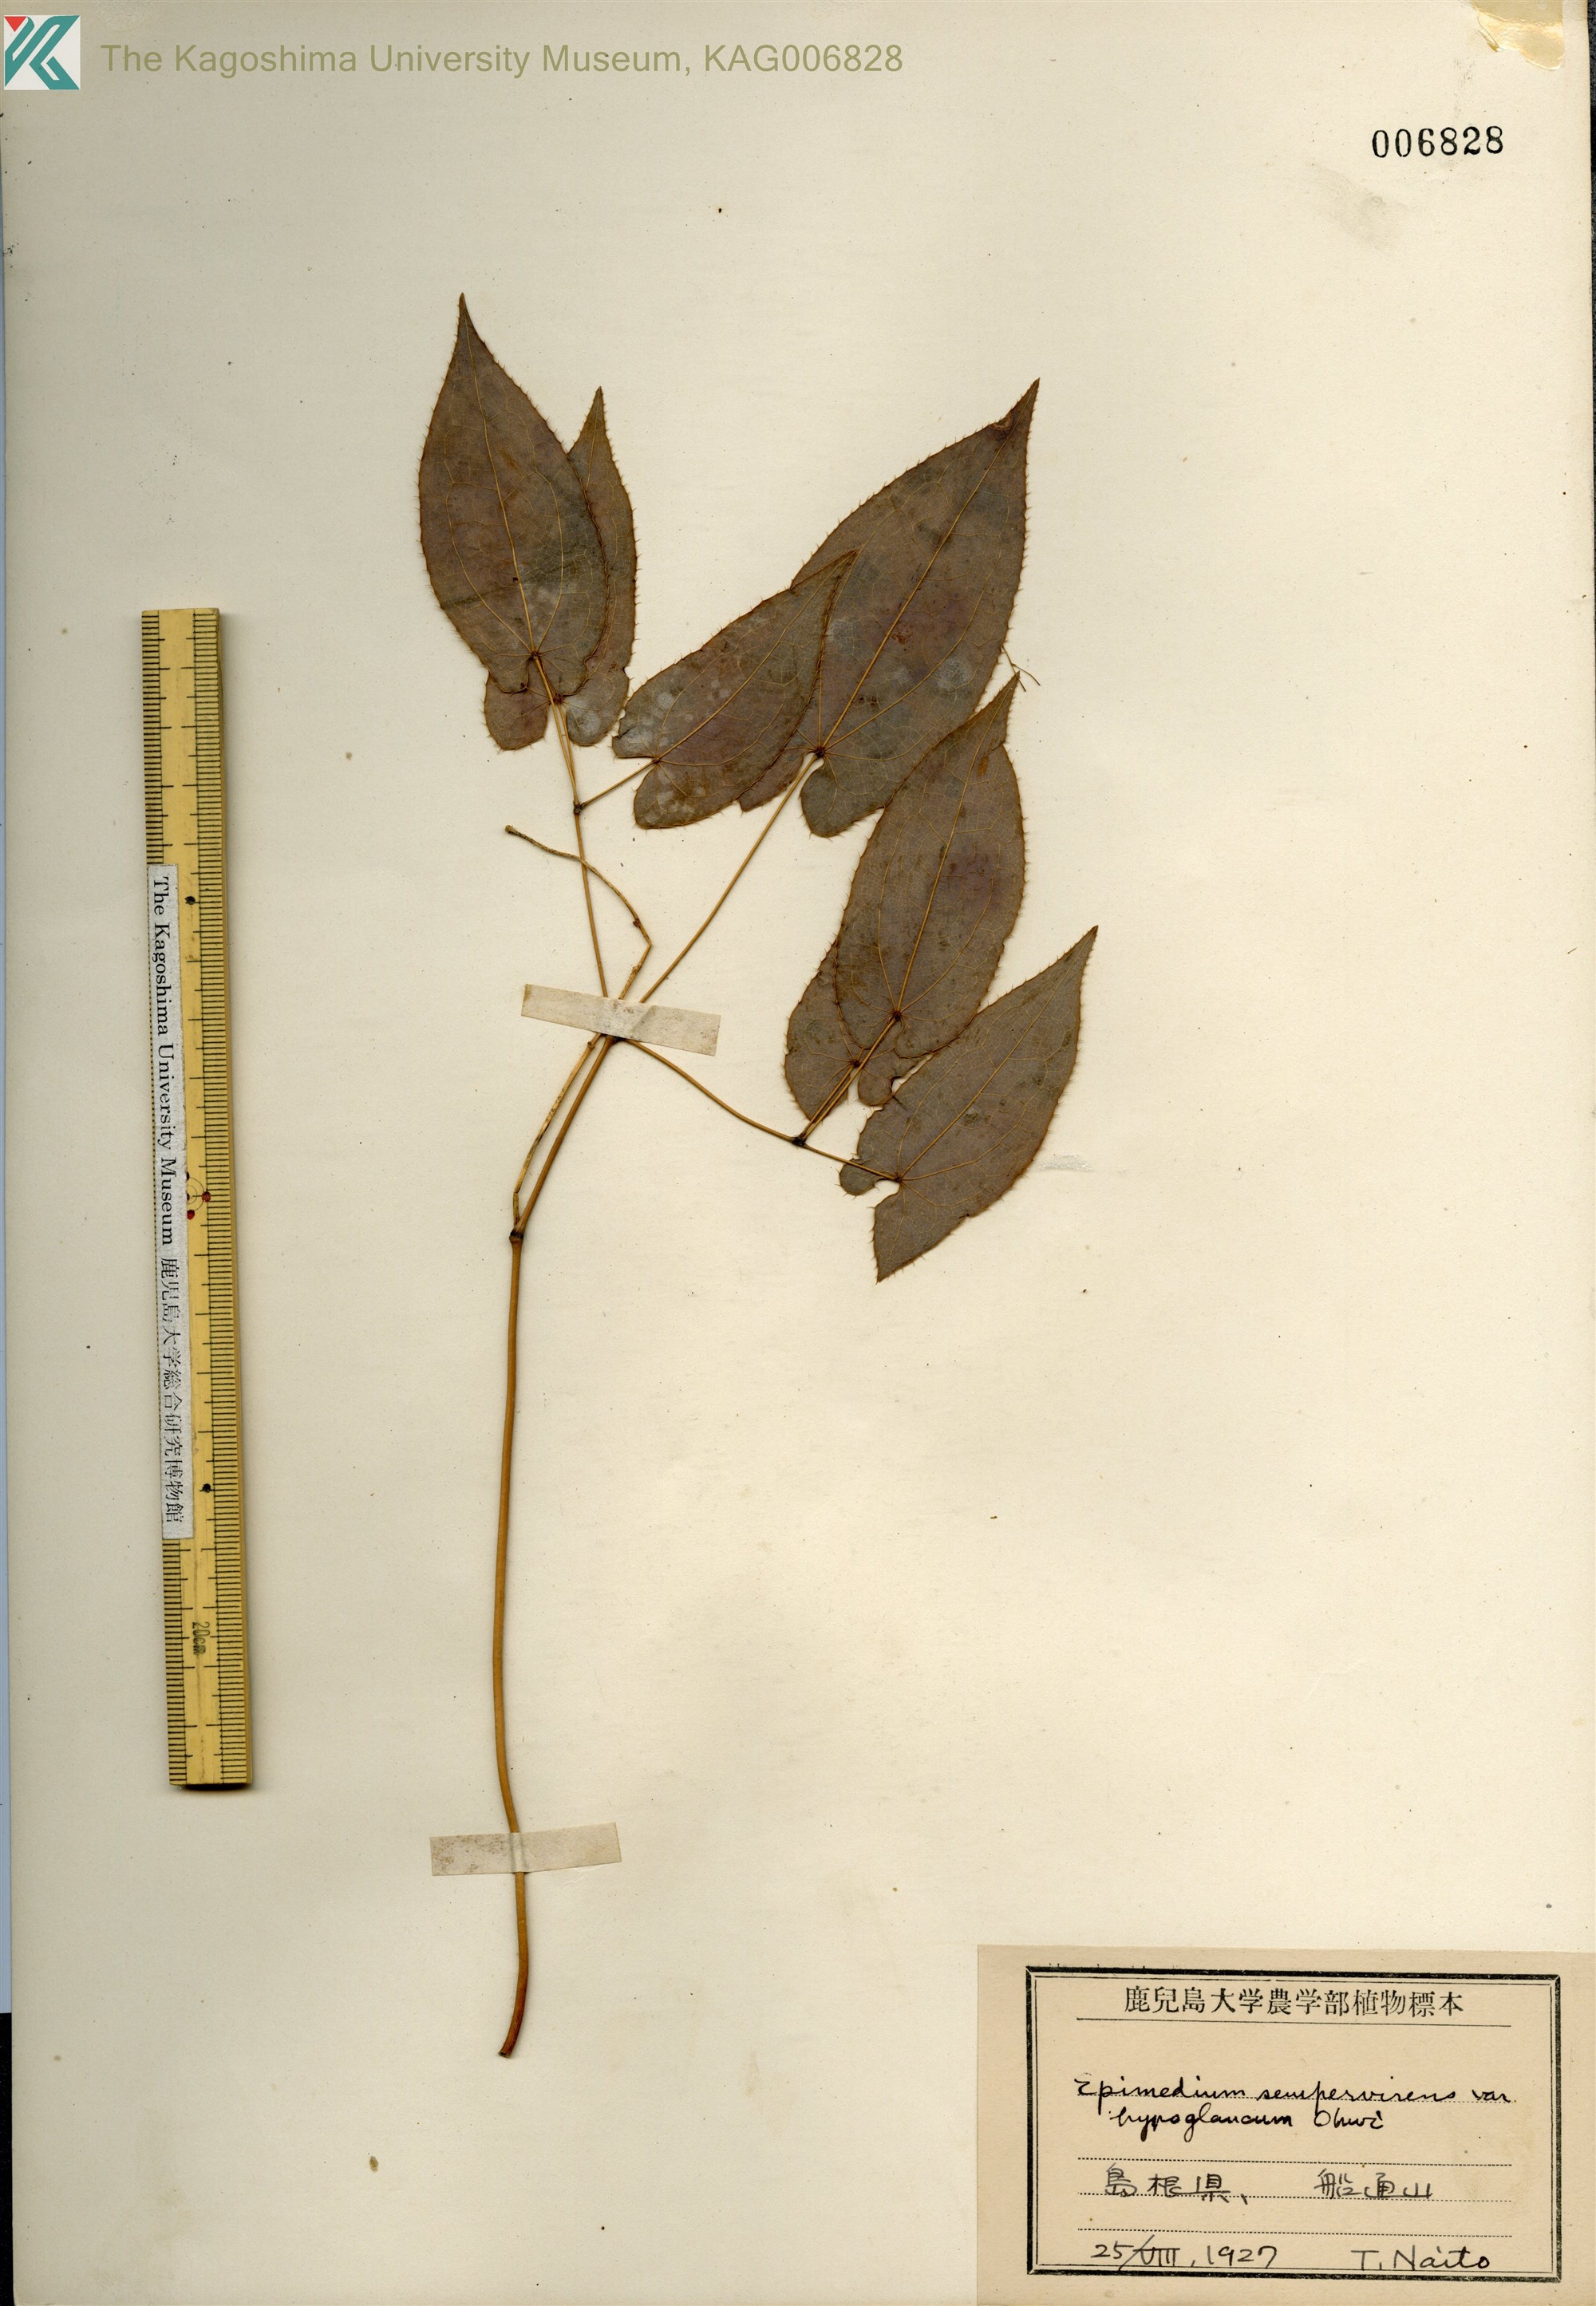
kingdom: Plantae
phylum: Tracheophyta
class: Magnoliopsida
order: Ranunculales
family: Berberidaceae
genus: Epimedium
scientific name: Epimedium sempervirens
